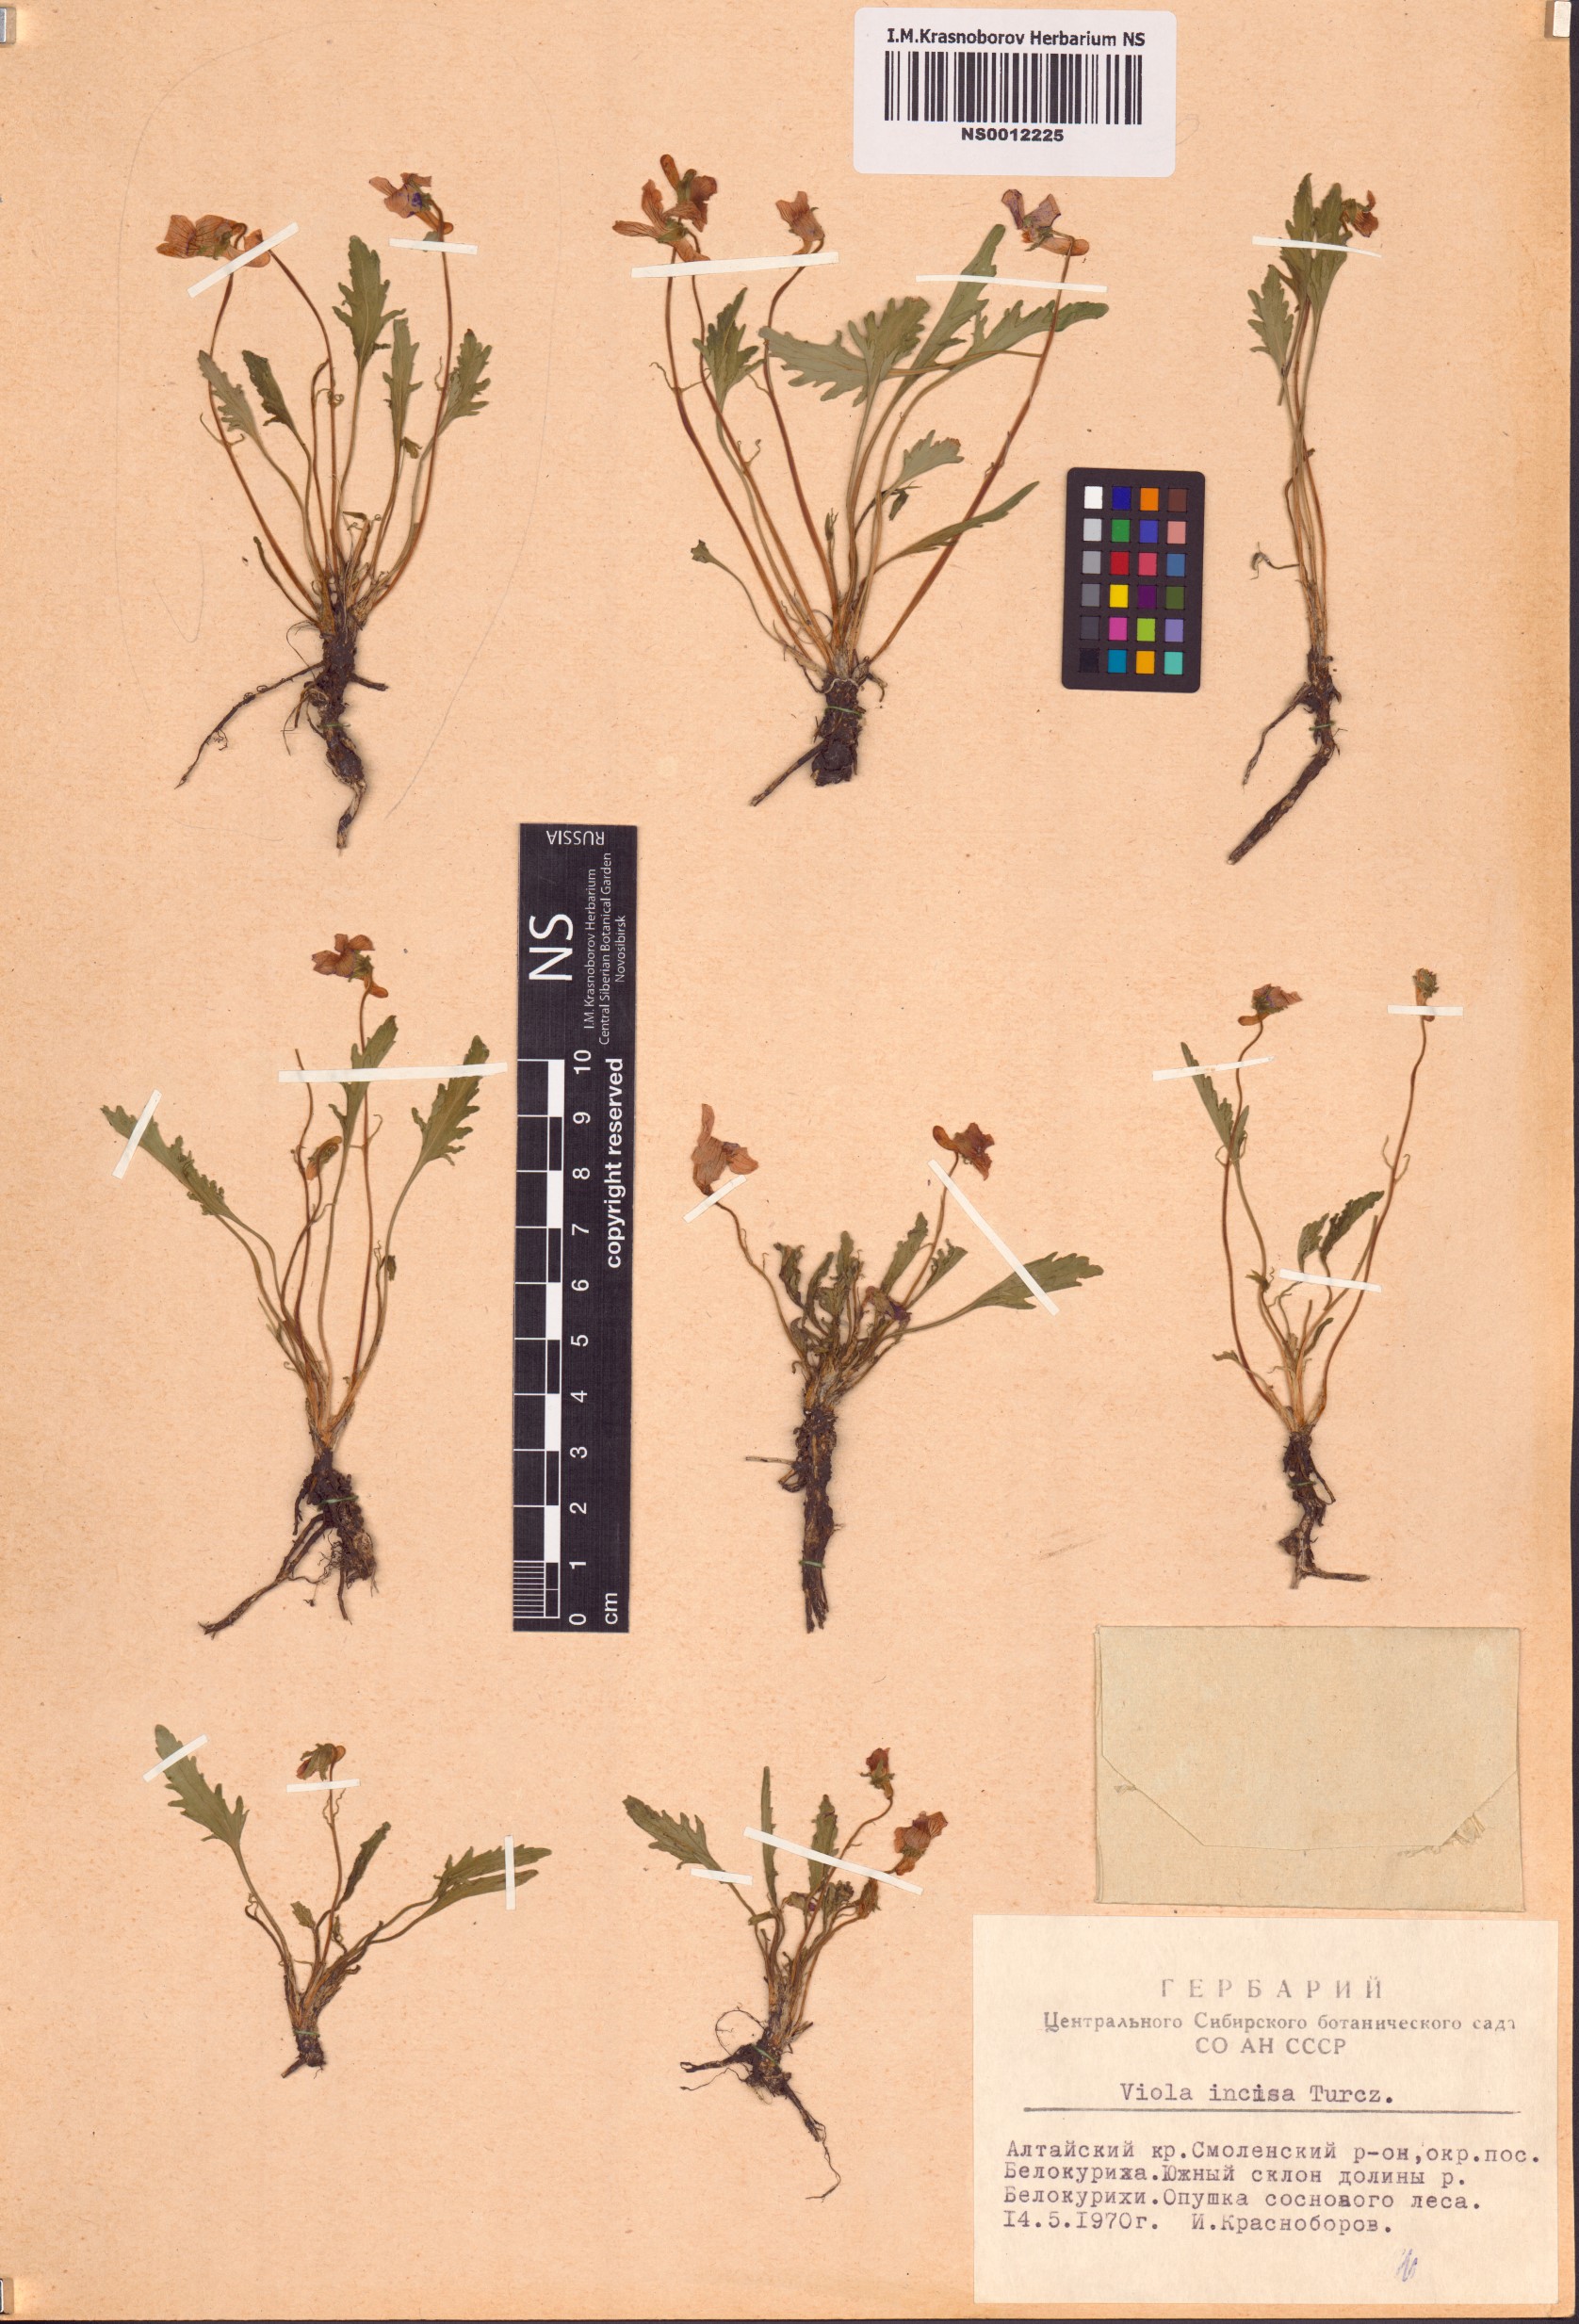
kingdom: Plantae
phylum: Tracheophyta
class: Magnoliopsida
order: Malpighiales
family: Violaceae
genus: Viola
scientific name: Viola incisa
